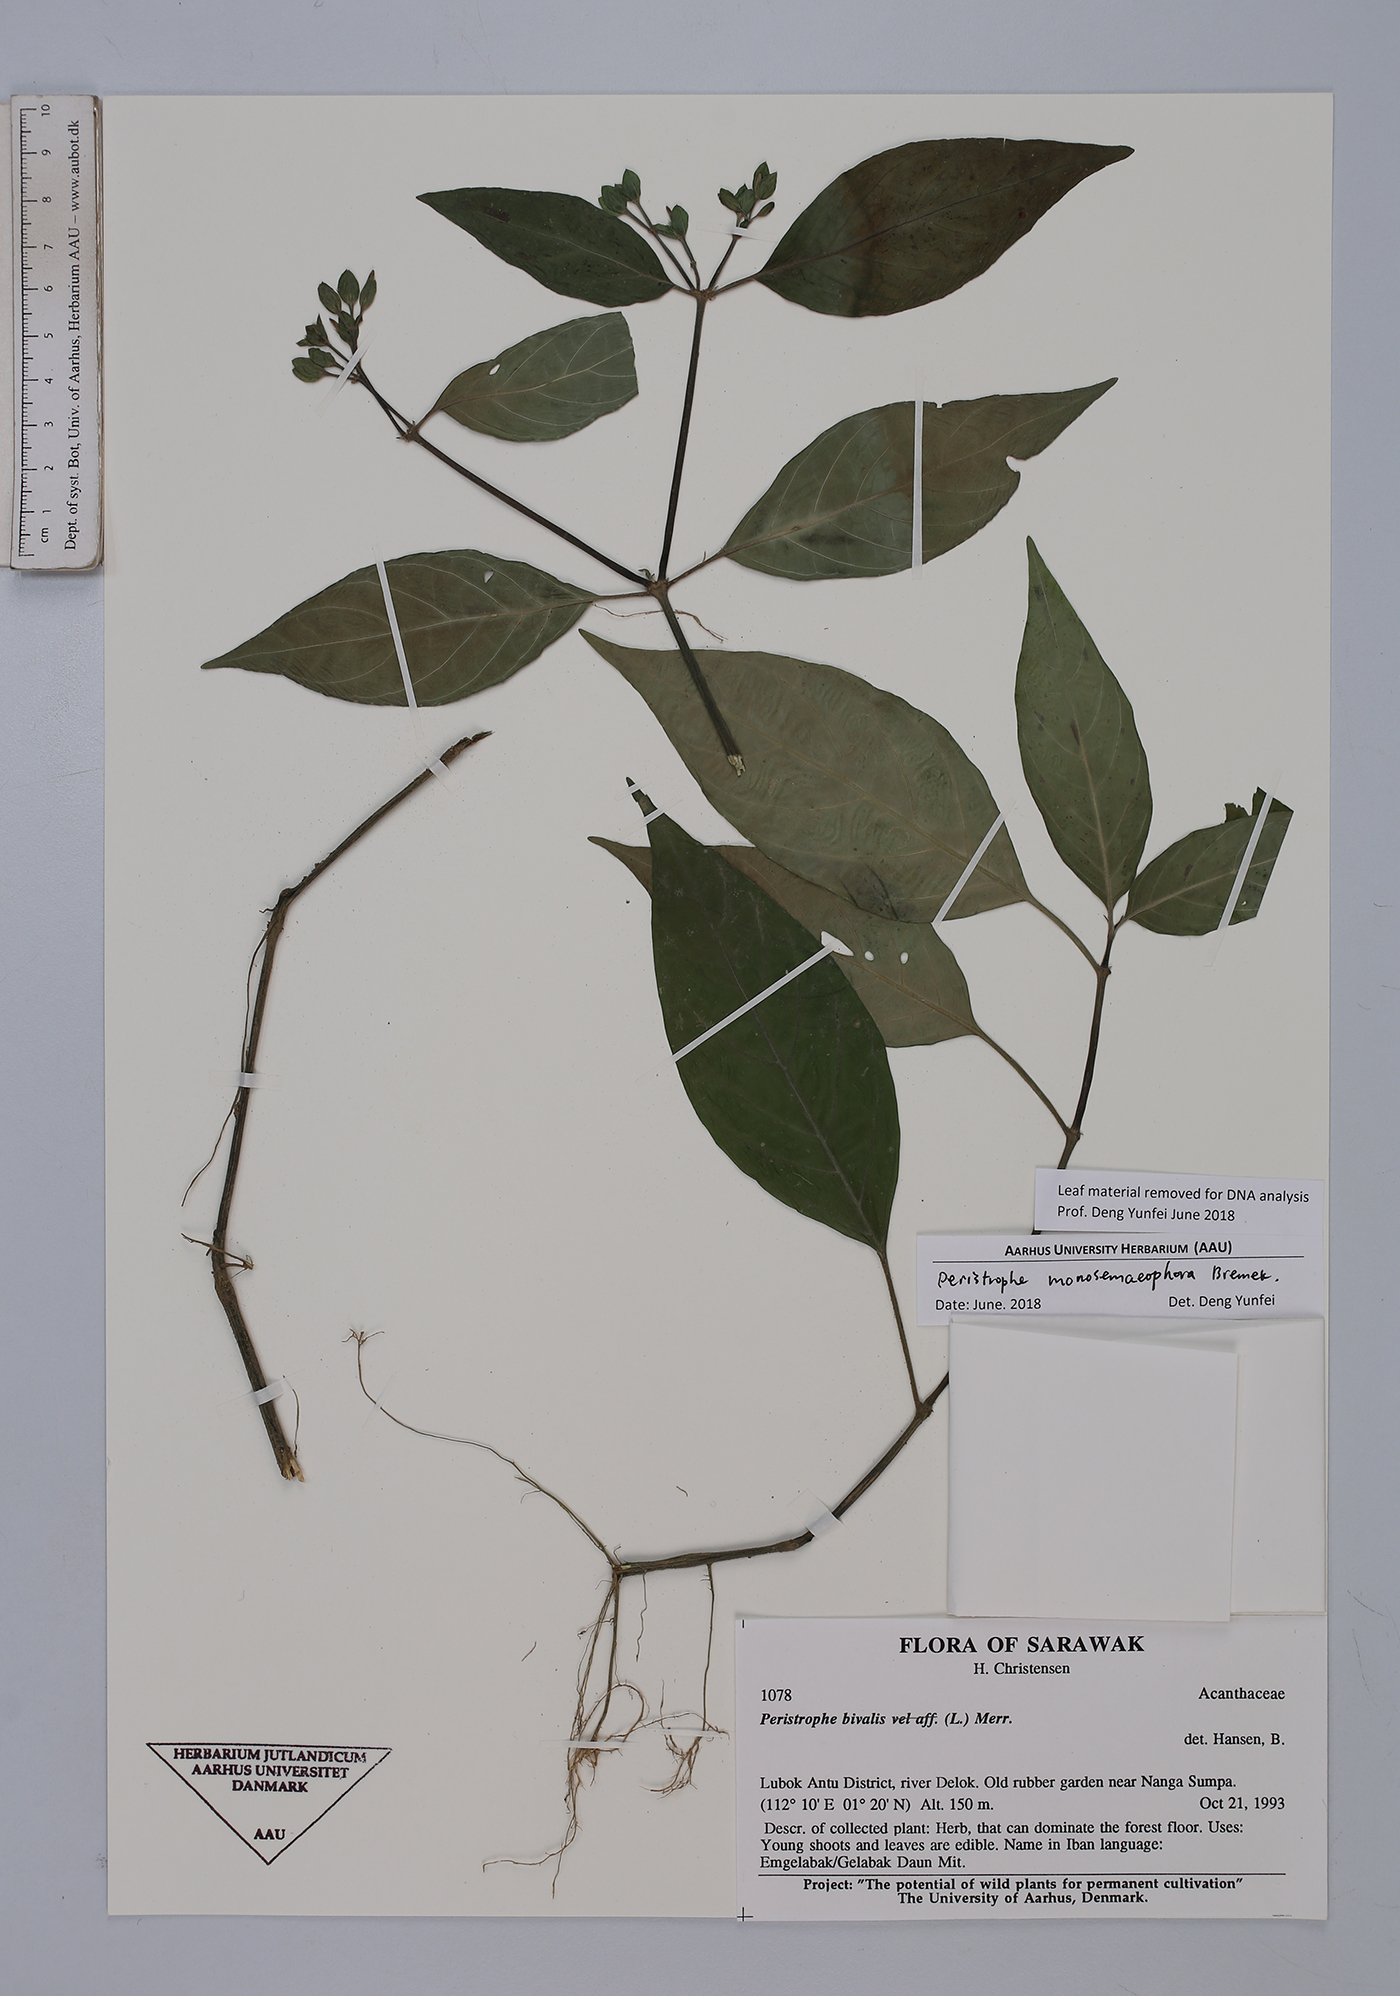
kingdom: Plantae
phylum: Tracheophyta
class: Magnoliopsida
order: Lamiales
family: Acanthaceae
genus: Dicliptera
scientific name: Dicliptera monosemaeophora
